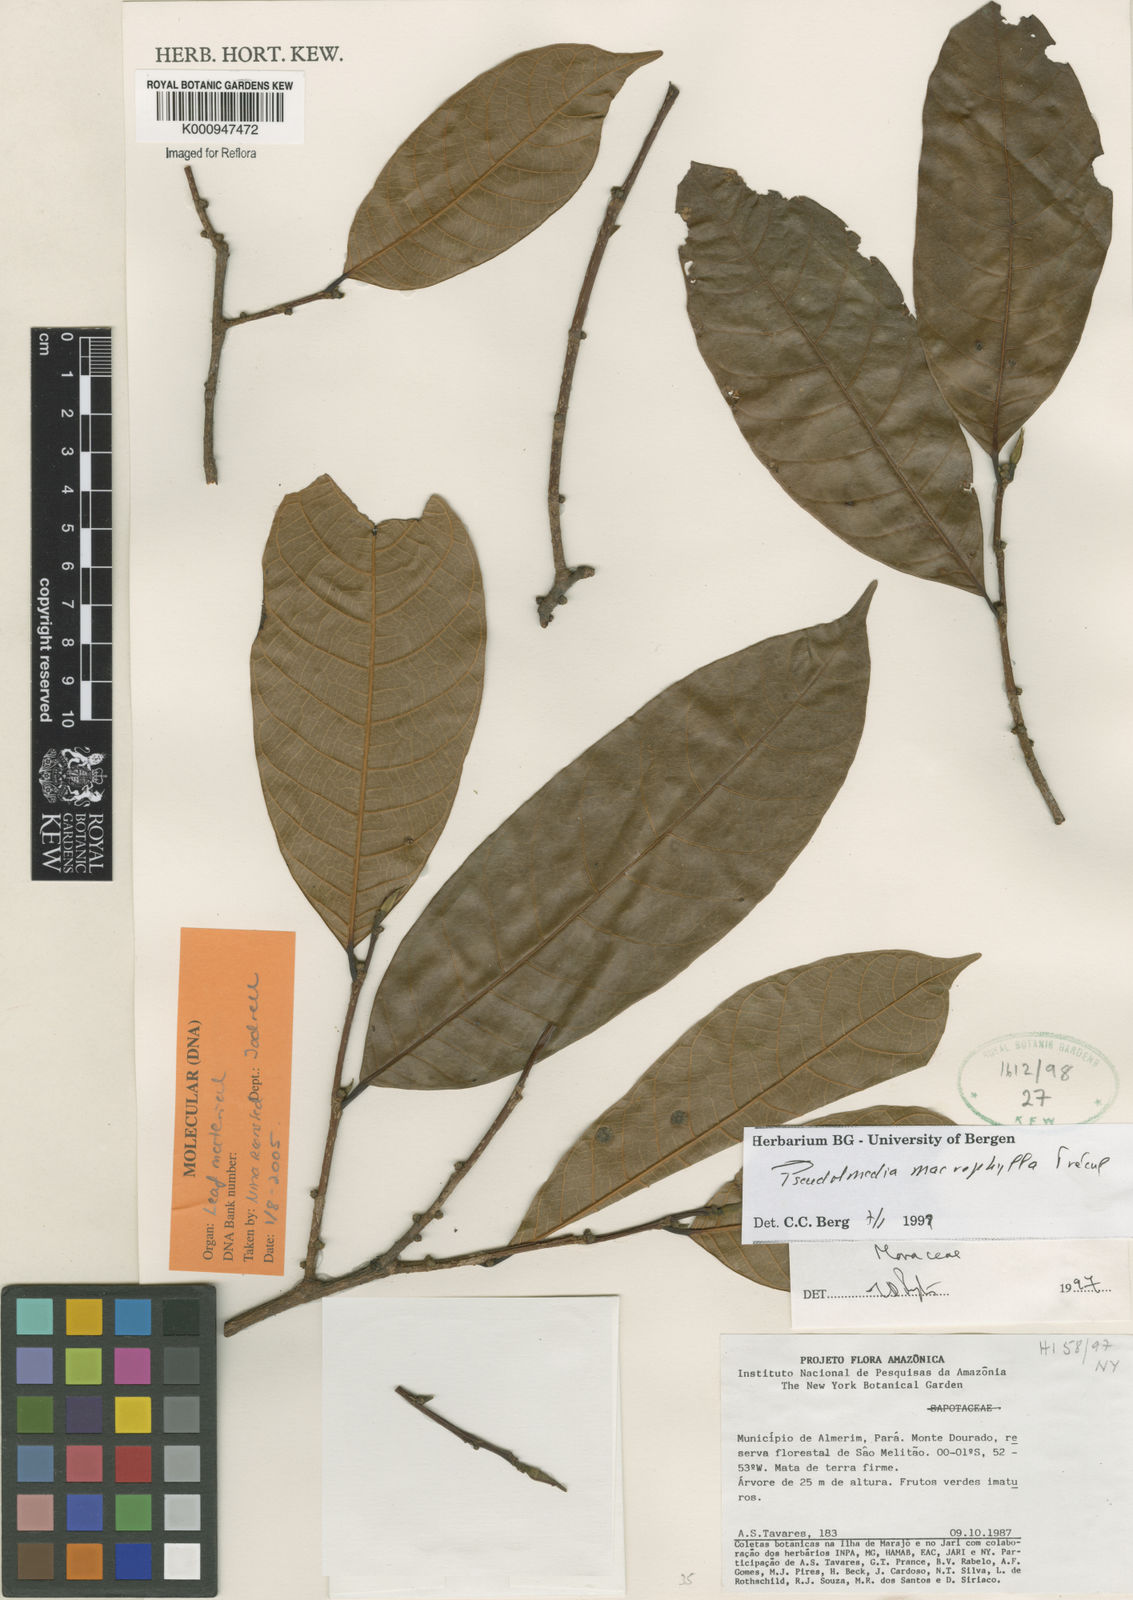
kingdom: Plantae
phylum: Tracheophyta
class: Magnoliopsida
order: Rosales
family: Moraceae
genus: Pseudolmedia
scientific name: Pseudolmedia
